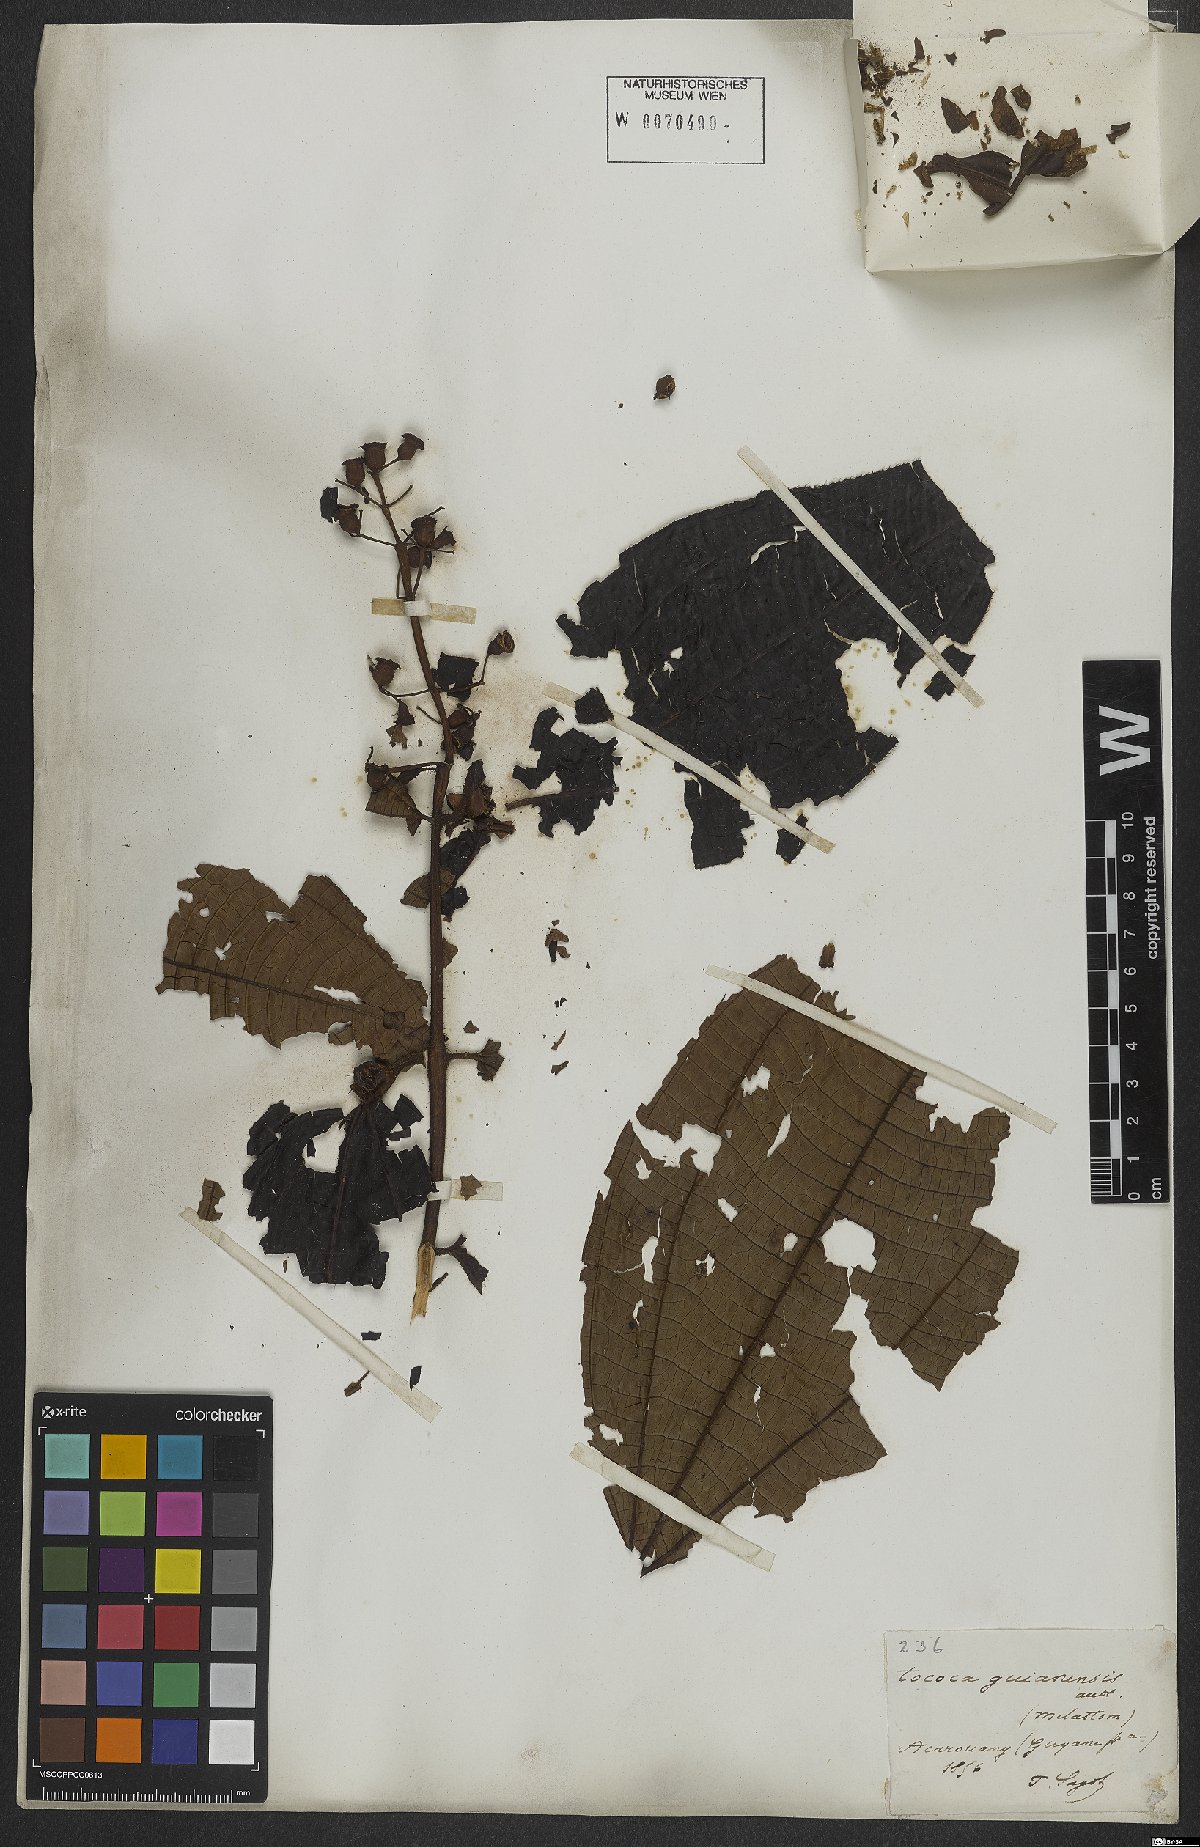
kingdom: Plantae
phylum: Tracheophyta
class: Magnoliopsida
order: Myrtales
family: Melastomataceae
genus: Miconia
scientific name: Miconia tococa
